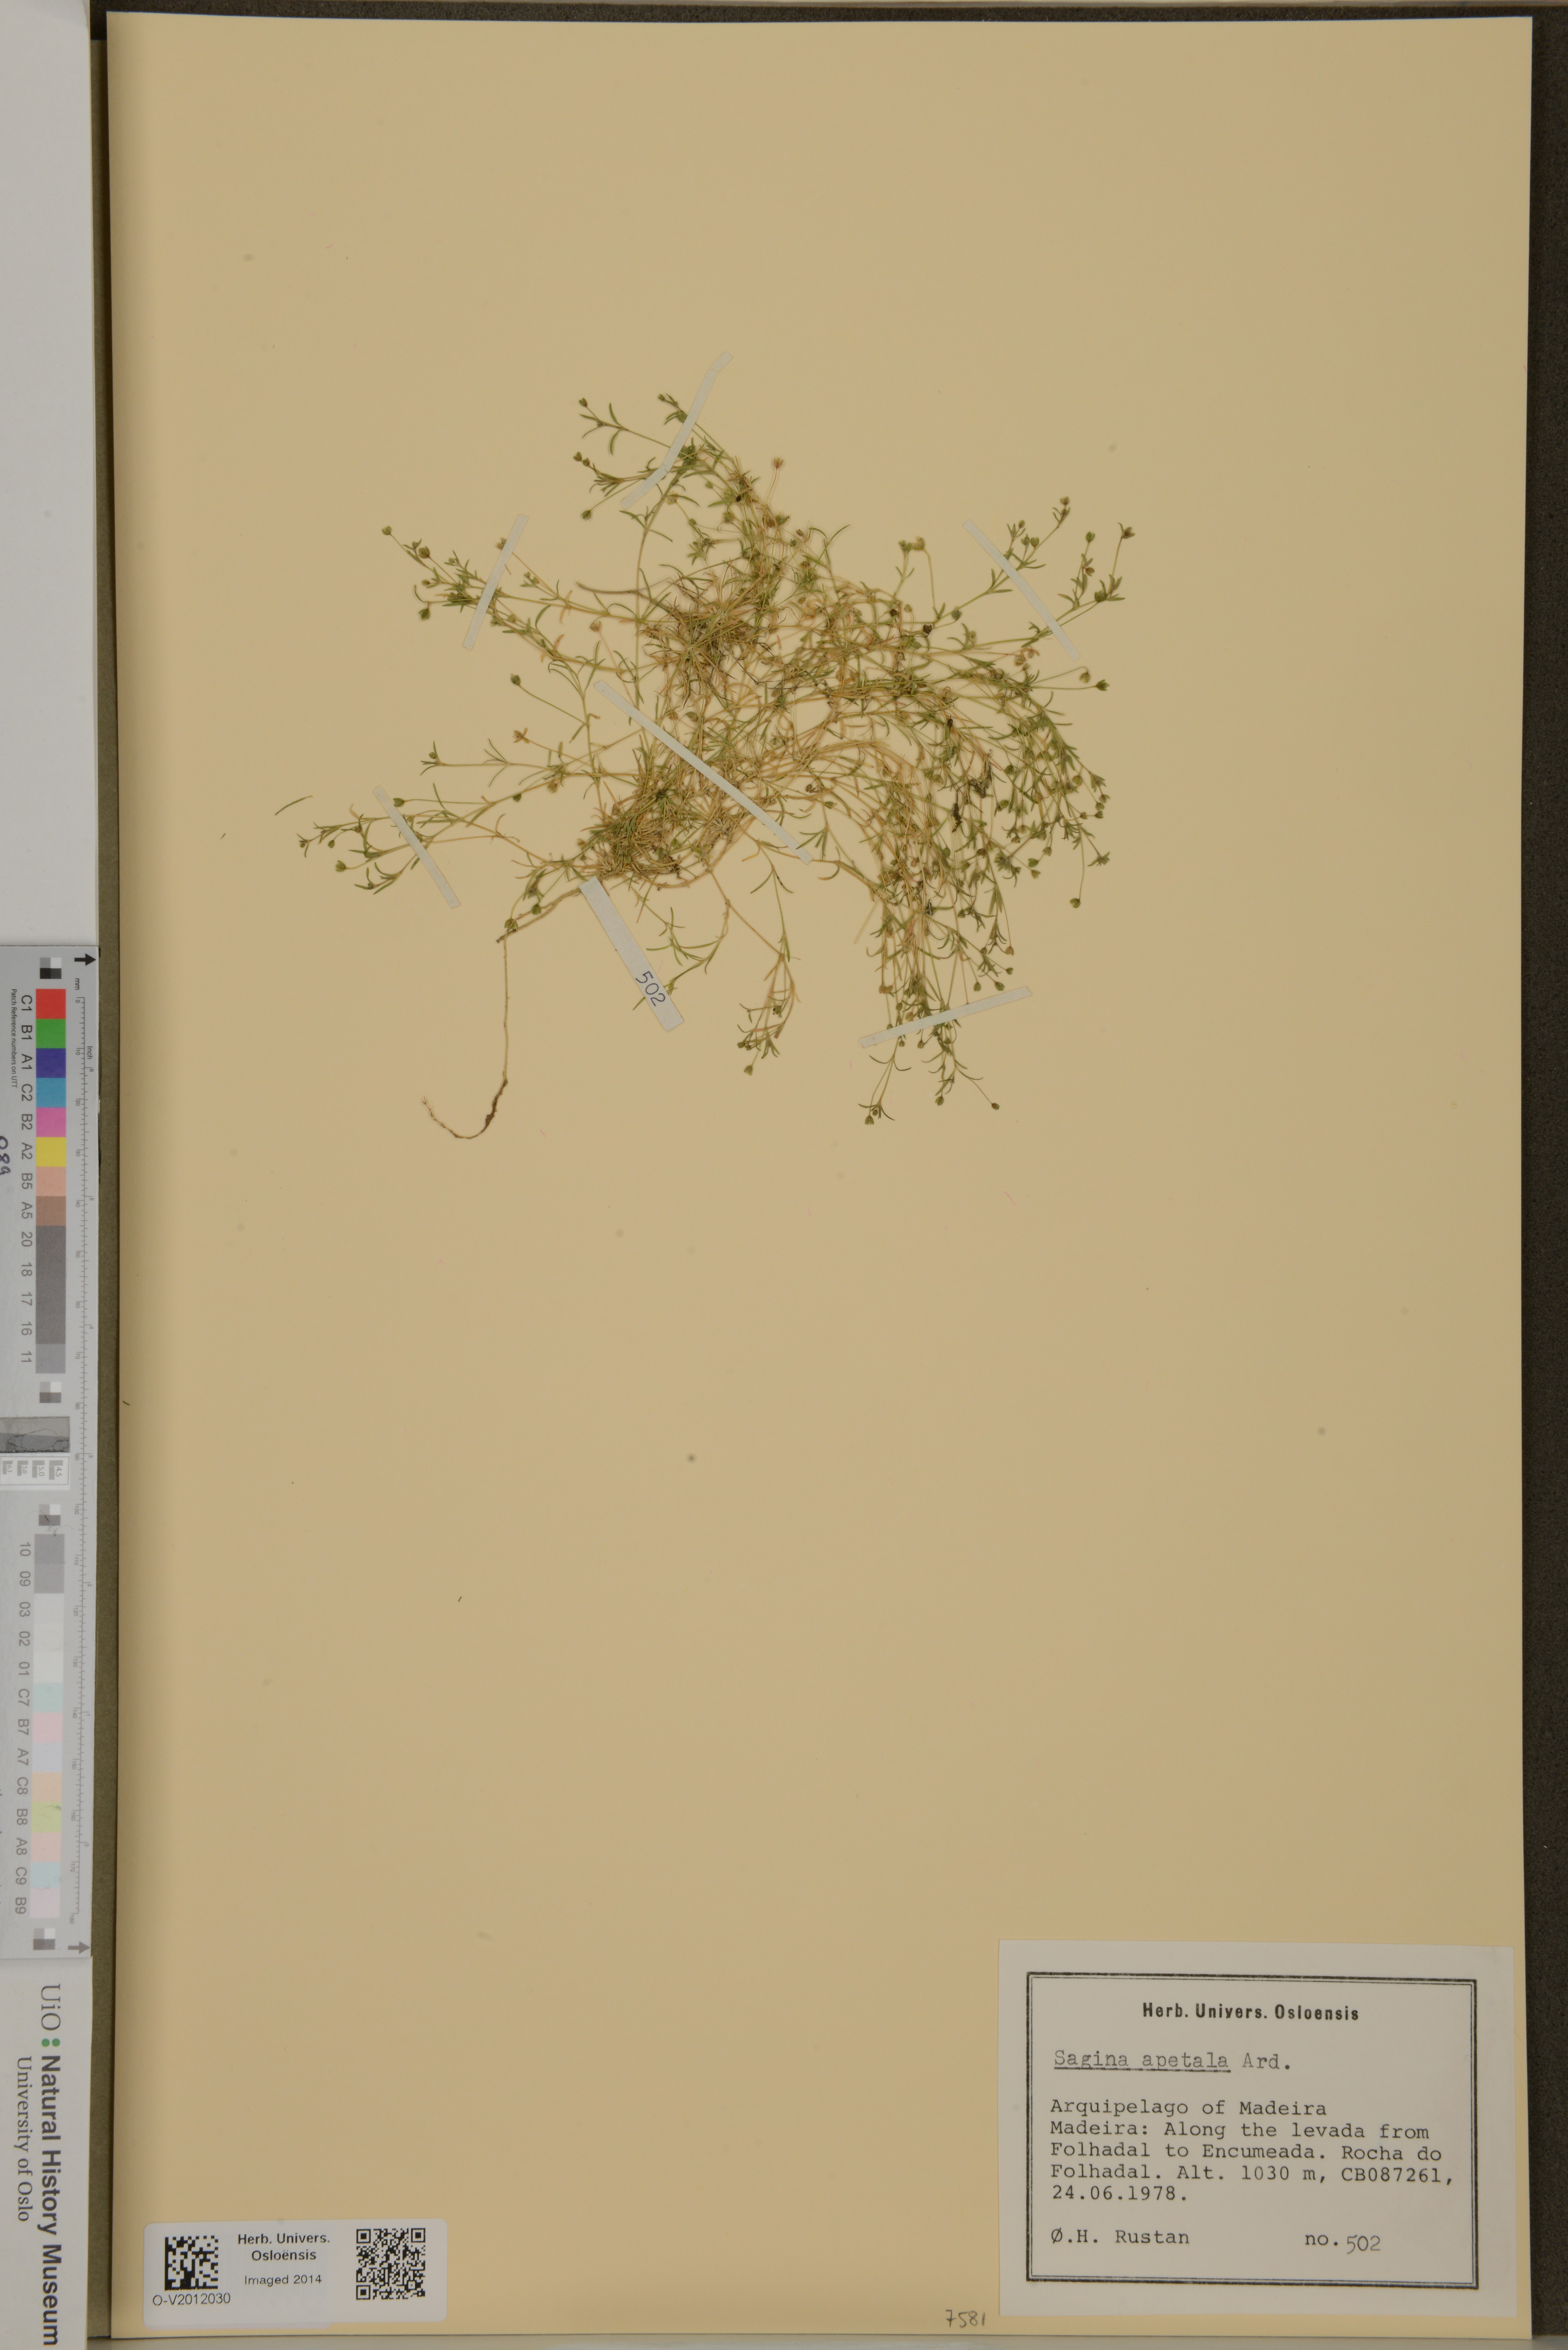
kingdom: Plantae
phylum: Tracheophyta
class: Magnoliopsida
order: Caryophyllales
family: Caryophyllaceae
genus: Sagina
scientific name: Sagina apetala
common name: Annual pearlwort
